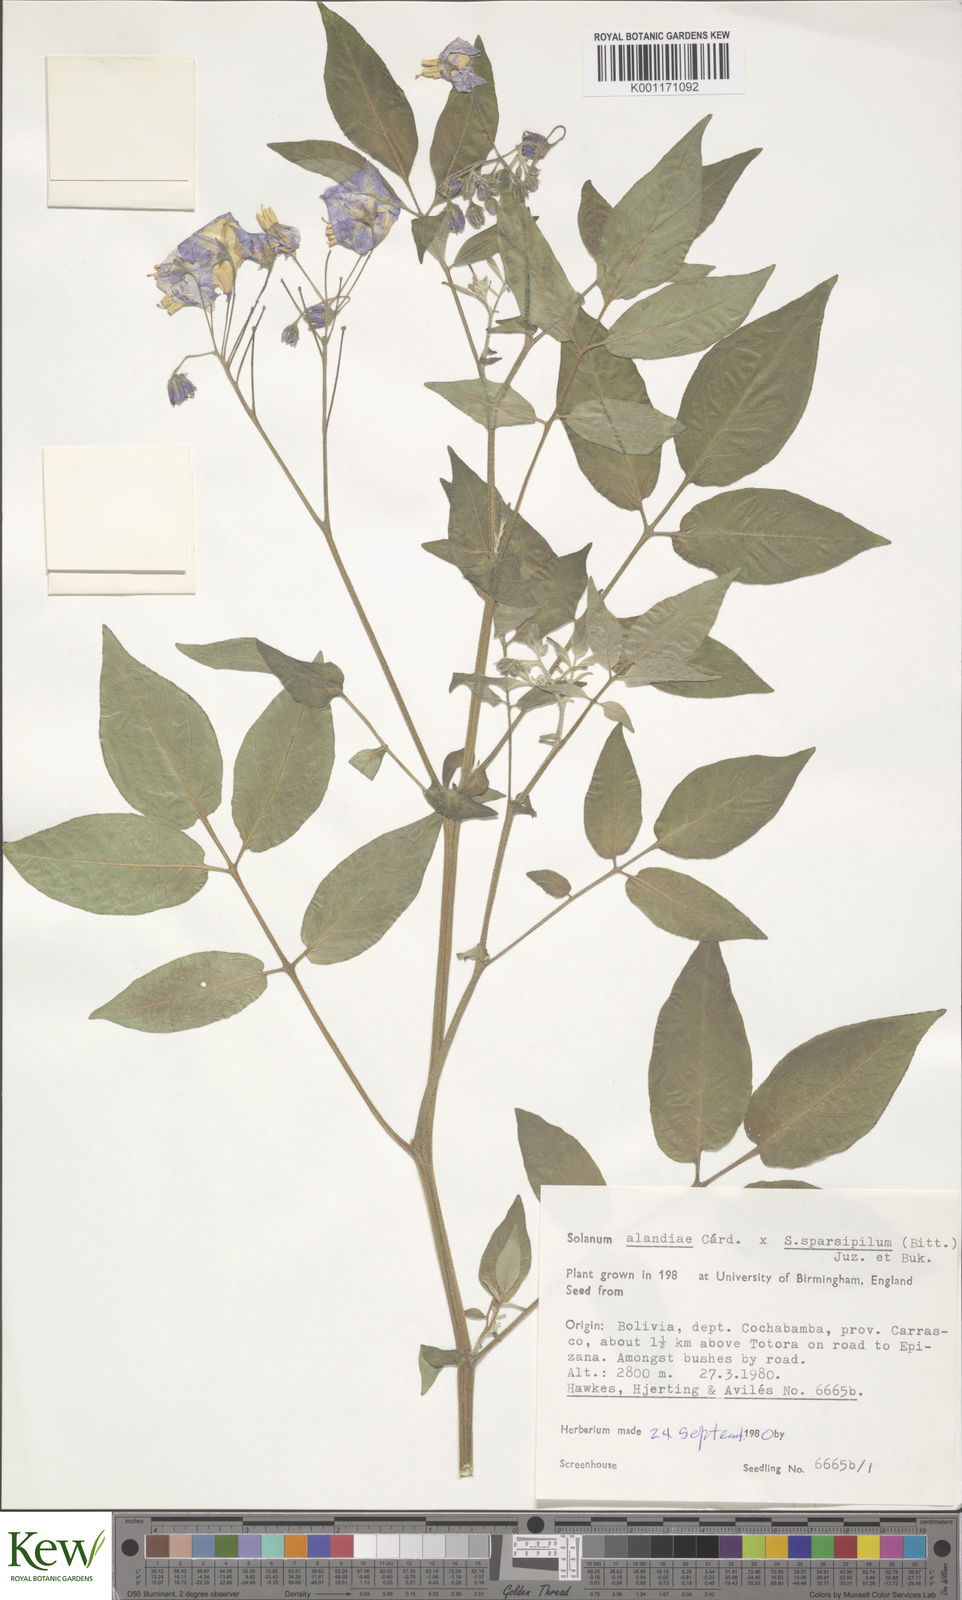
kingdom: Plantae
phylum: Tracheophyta
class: Magnoliopsida
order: Solanales
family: Solanaceae
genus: Solanum
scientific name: Solanum
